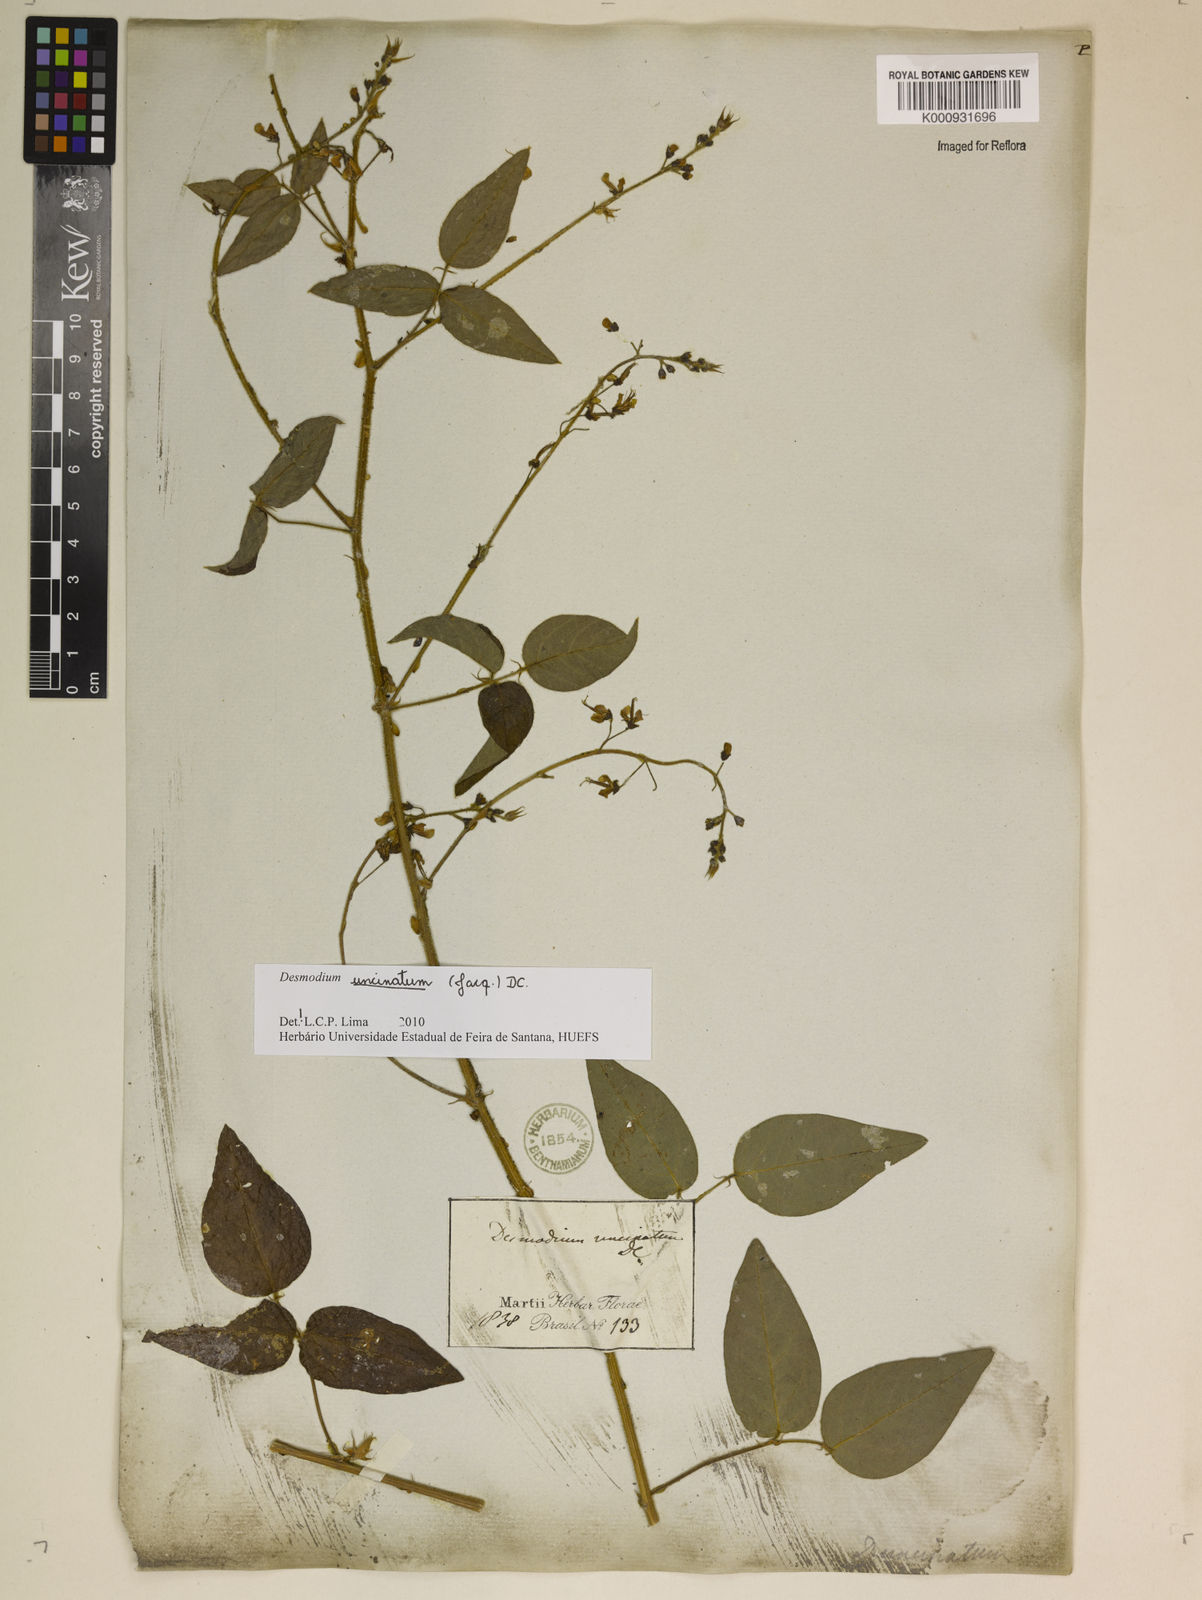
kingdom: Plantae
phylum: Tracheophyta
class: Magnoliopsida
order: Fabales
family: Fabaceae
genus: Desmodium
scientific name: Desmodium uncinatum
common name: Silverleaf desmodium
